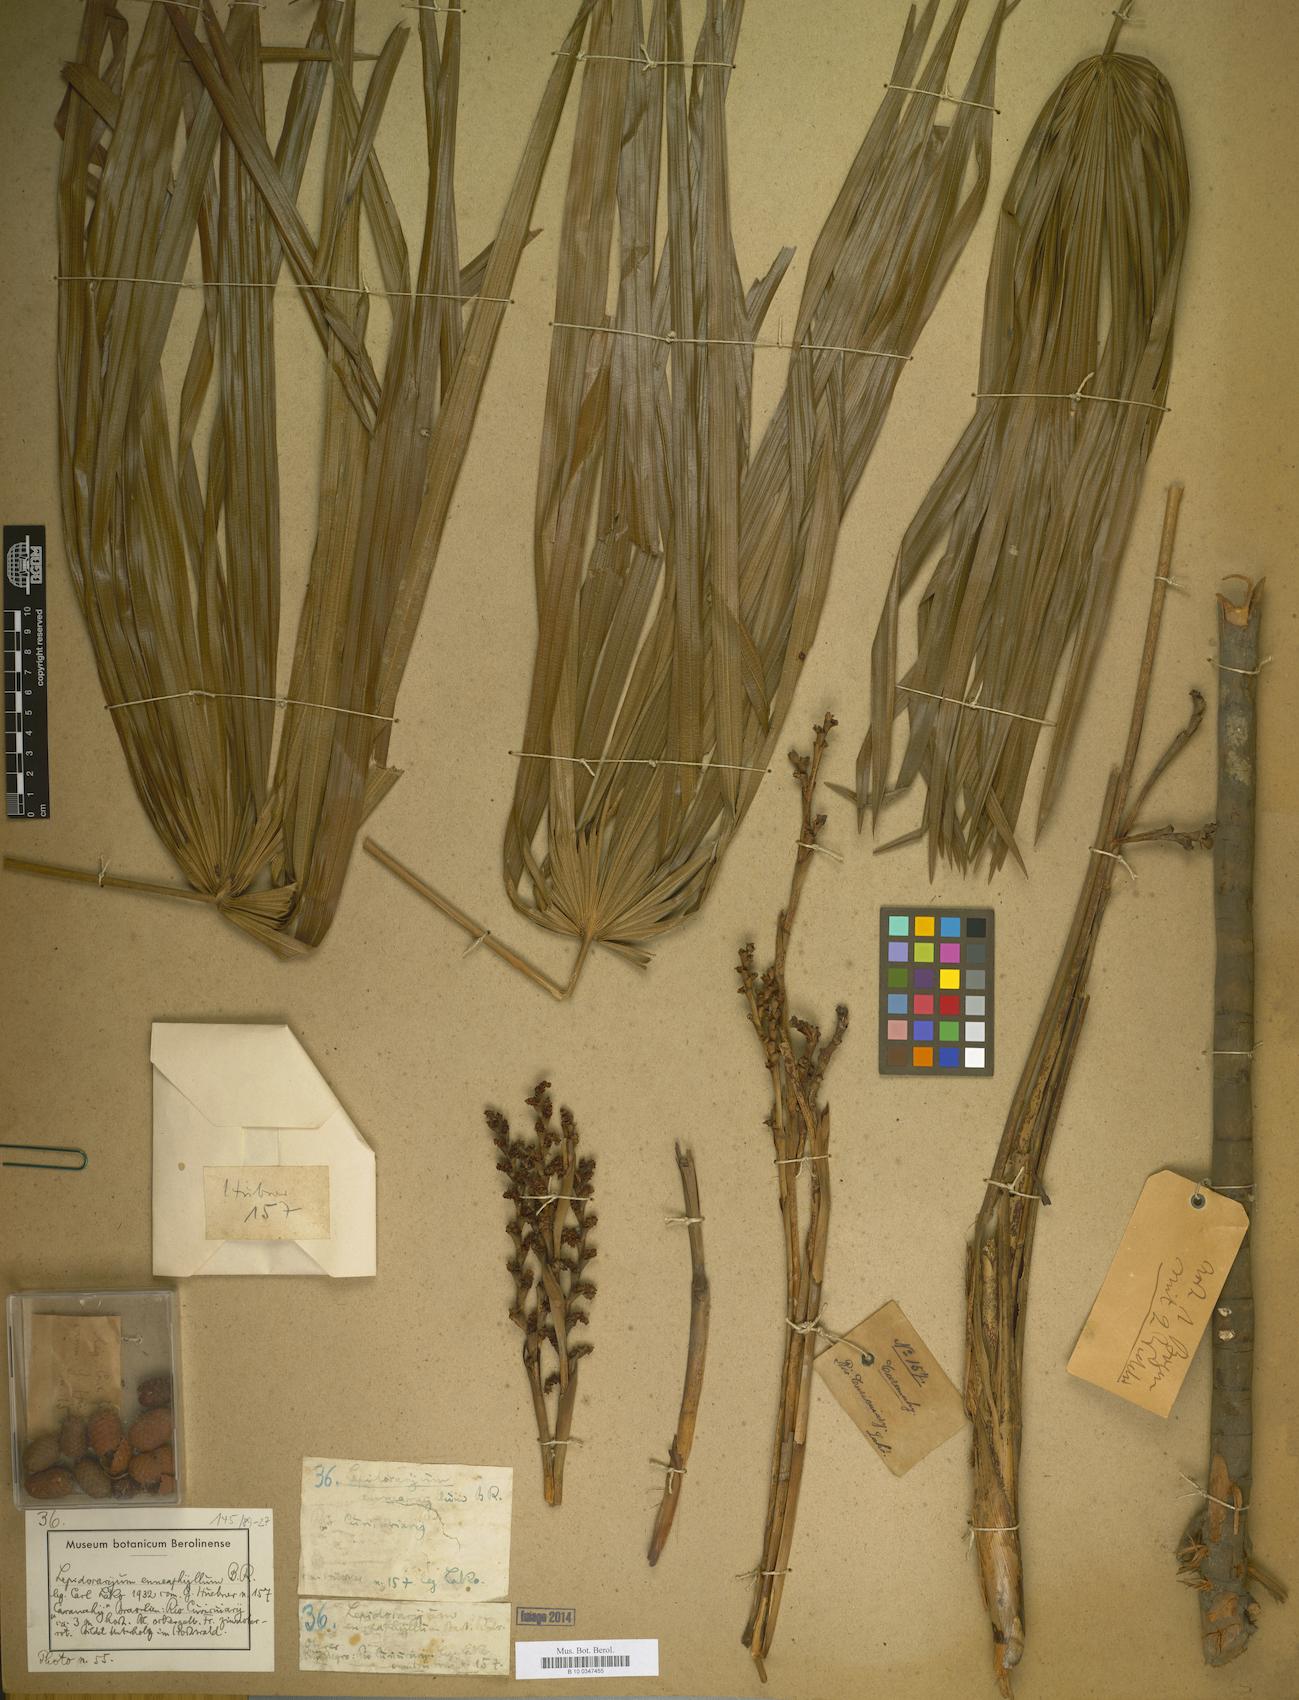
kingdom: Plantae
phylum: Tracheophyta
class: Liliopsida
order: Arecales
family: Arecaceae
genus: Lepidocaryum
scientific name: Lepidocaryum tenue
